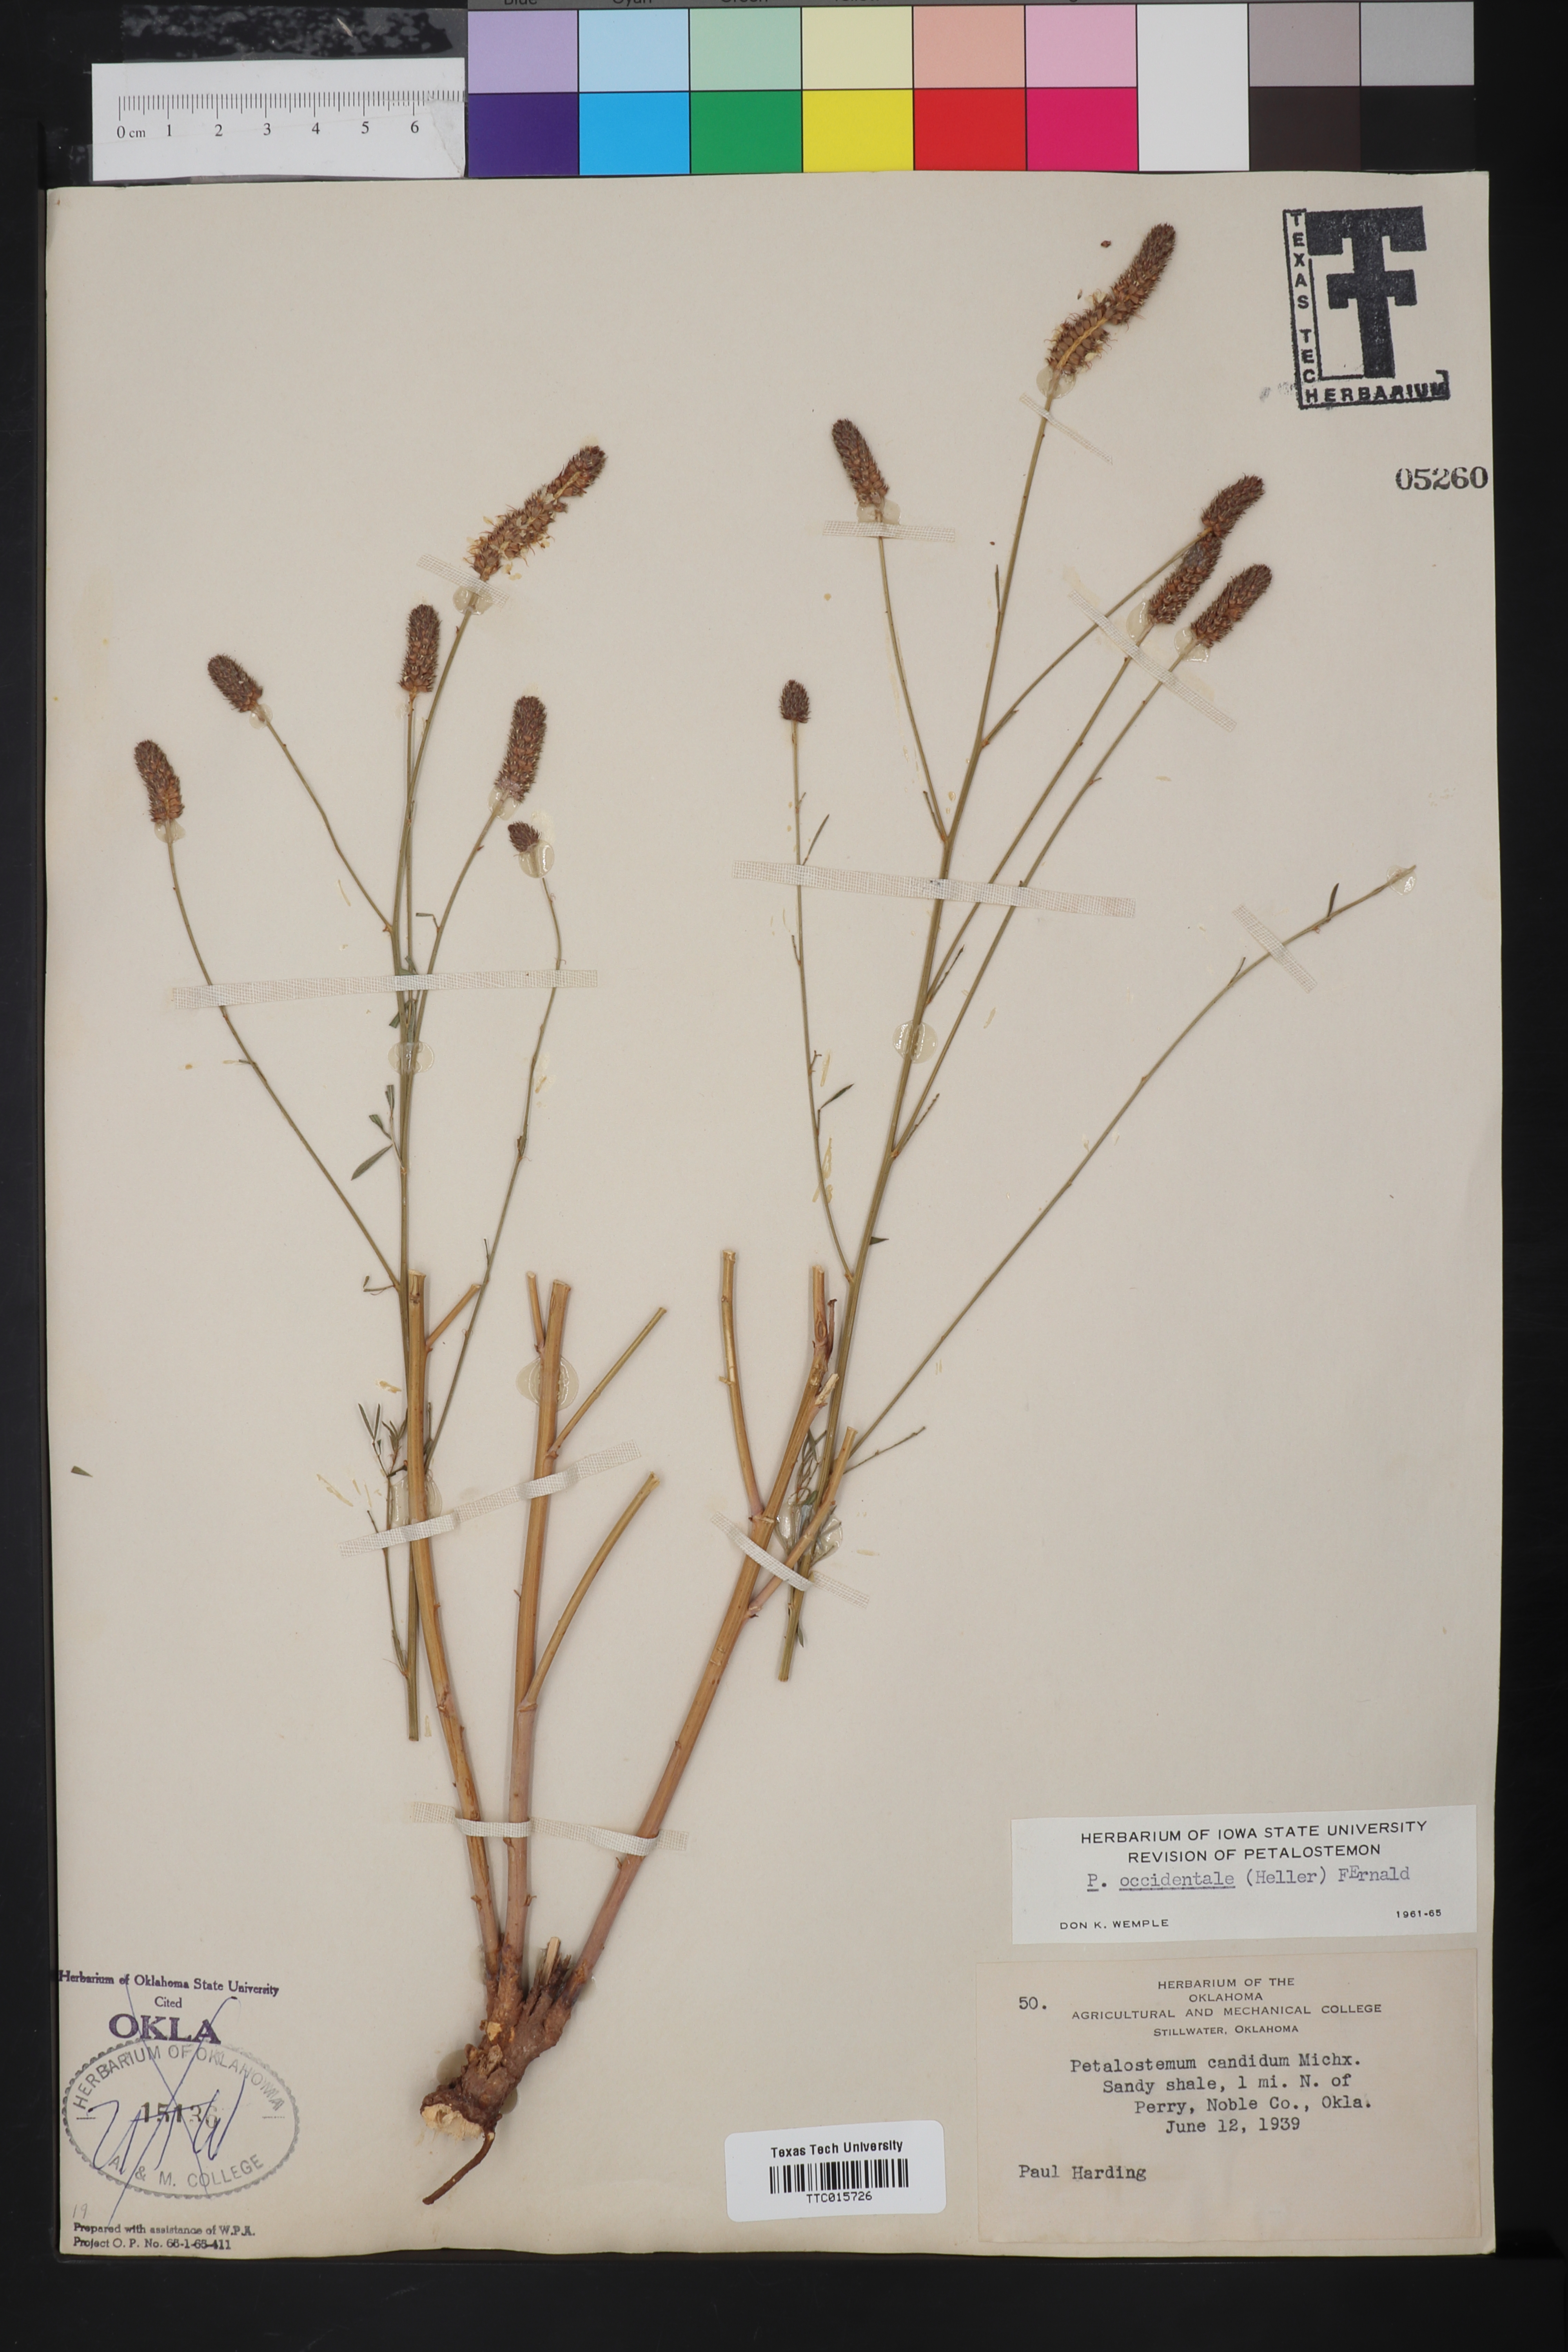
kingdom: Plantae
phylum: Tracheophyta
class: Magnoliopsida
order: Fabales
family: Fabaceae
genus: Dalea
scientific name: Dalea candida
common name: White prairie-clover
